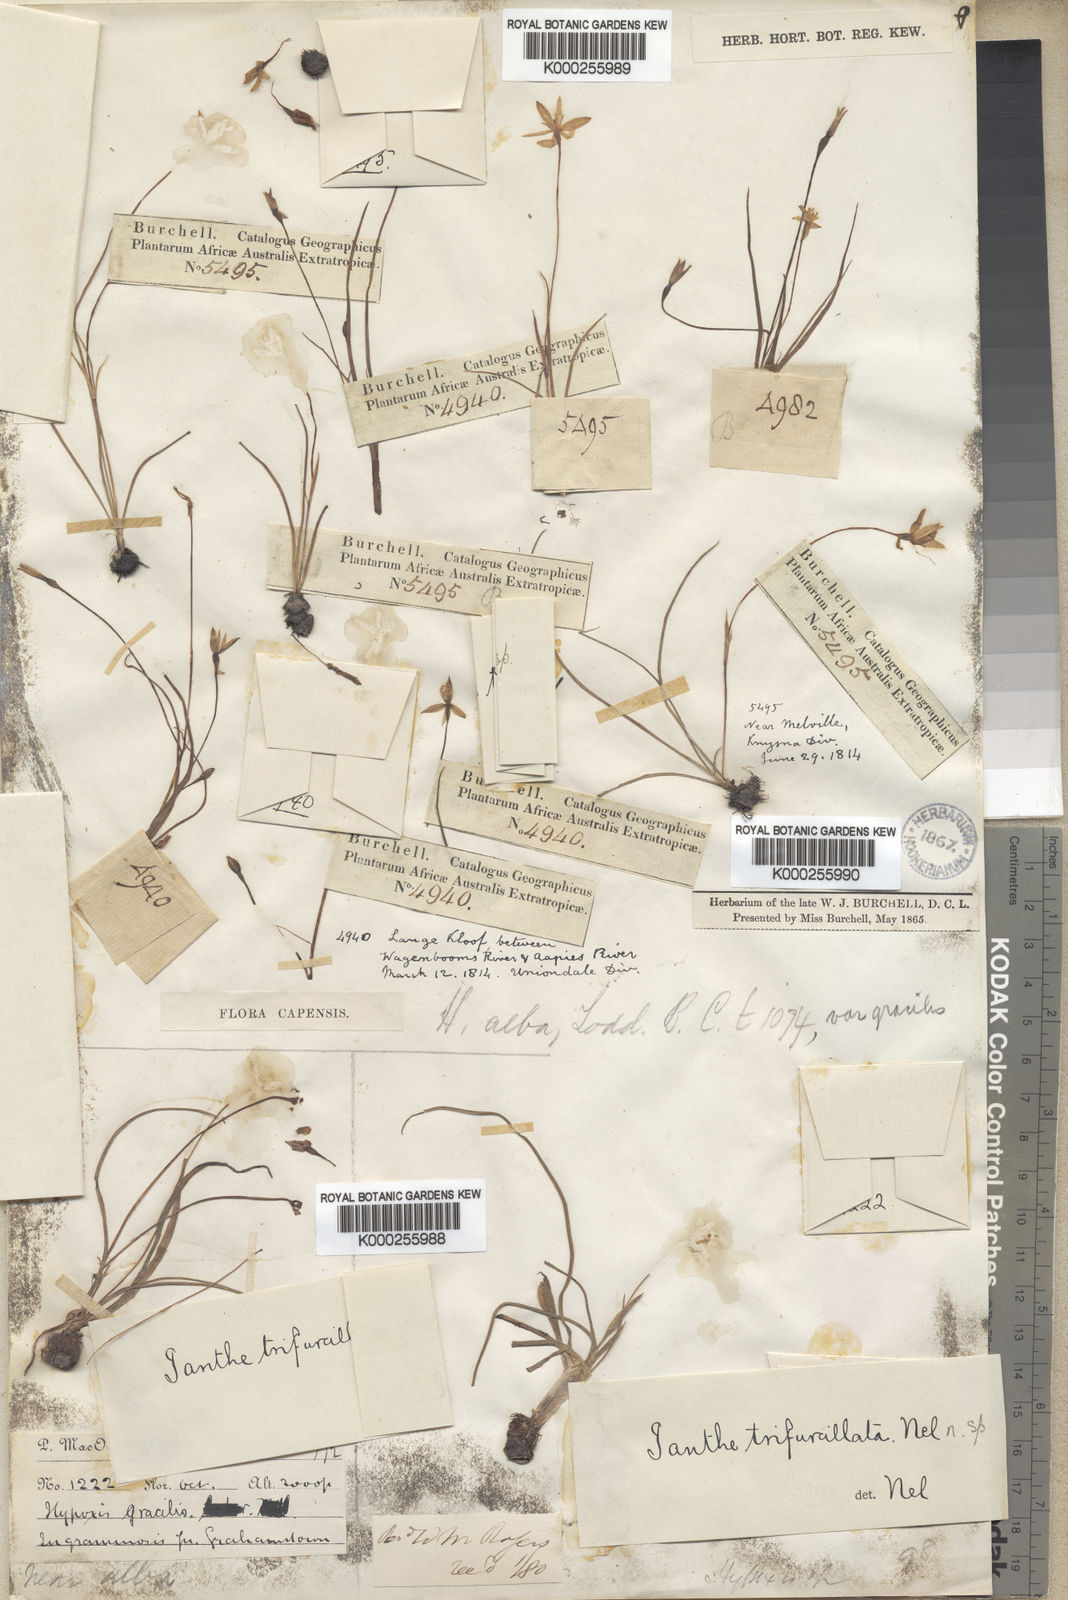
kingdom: Plantae
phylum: Tracheophyta
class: Liliopsida
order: Asparagales
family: Hypoxidaceae
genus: Pauridia
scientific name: Pauridia trifurcillata
